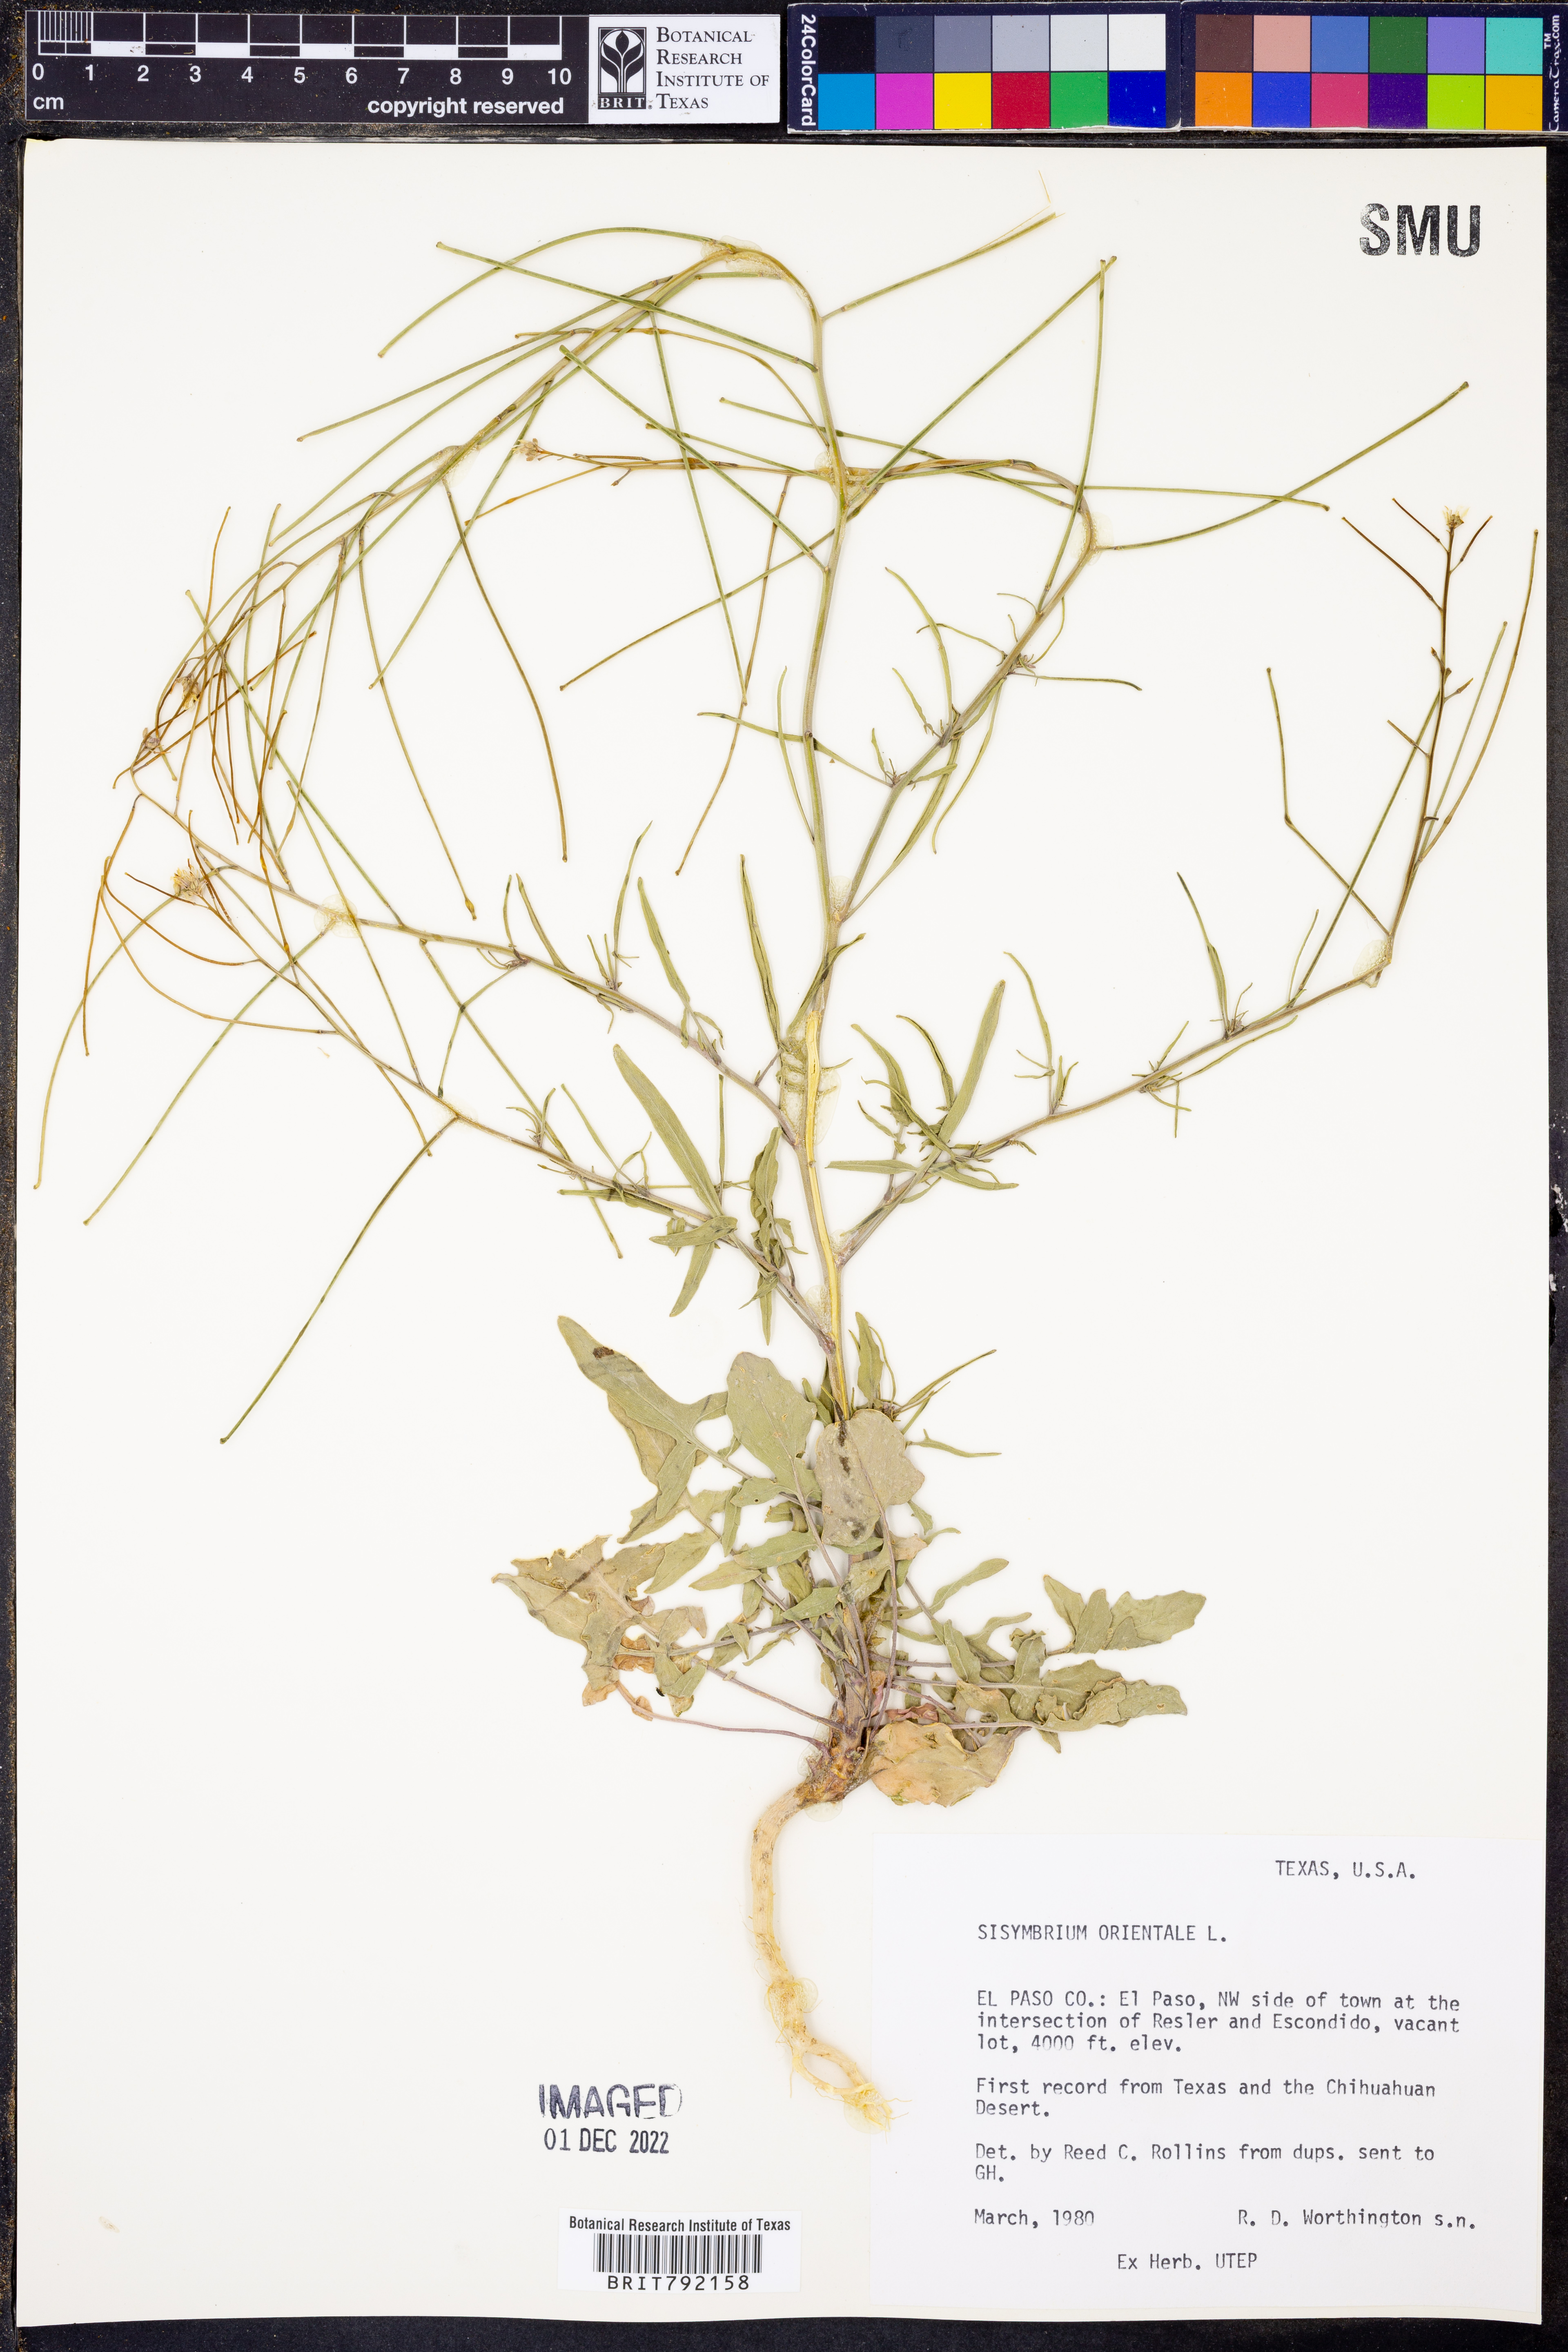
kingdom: Plantae
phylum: Tracheophyta
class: Magnoliopsida
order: Brassicales
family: Brassicaceae
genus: Sisymbrium
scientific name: Sisymbrium orientale
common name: Eastern rocket
